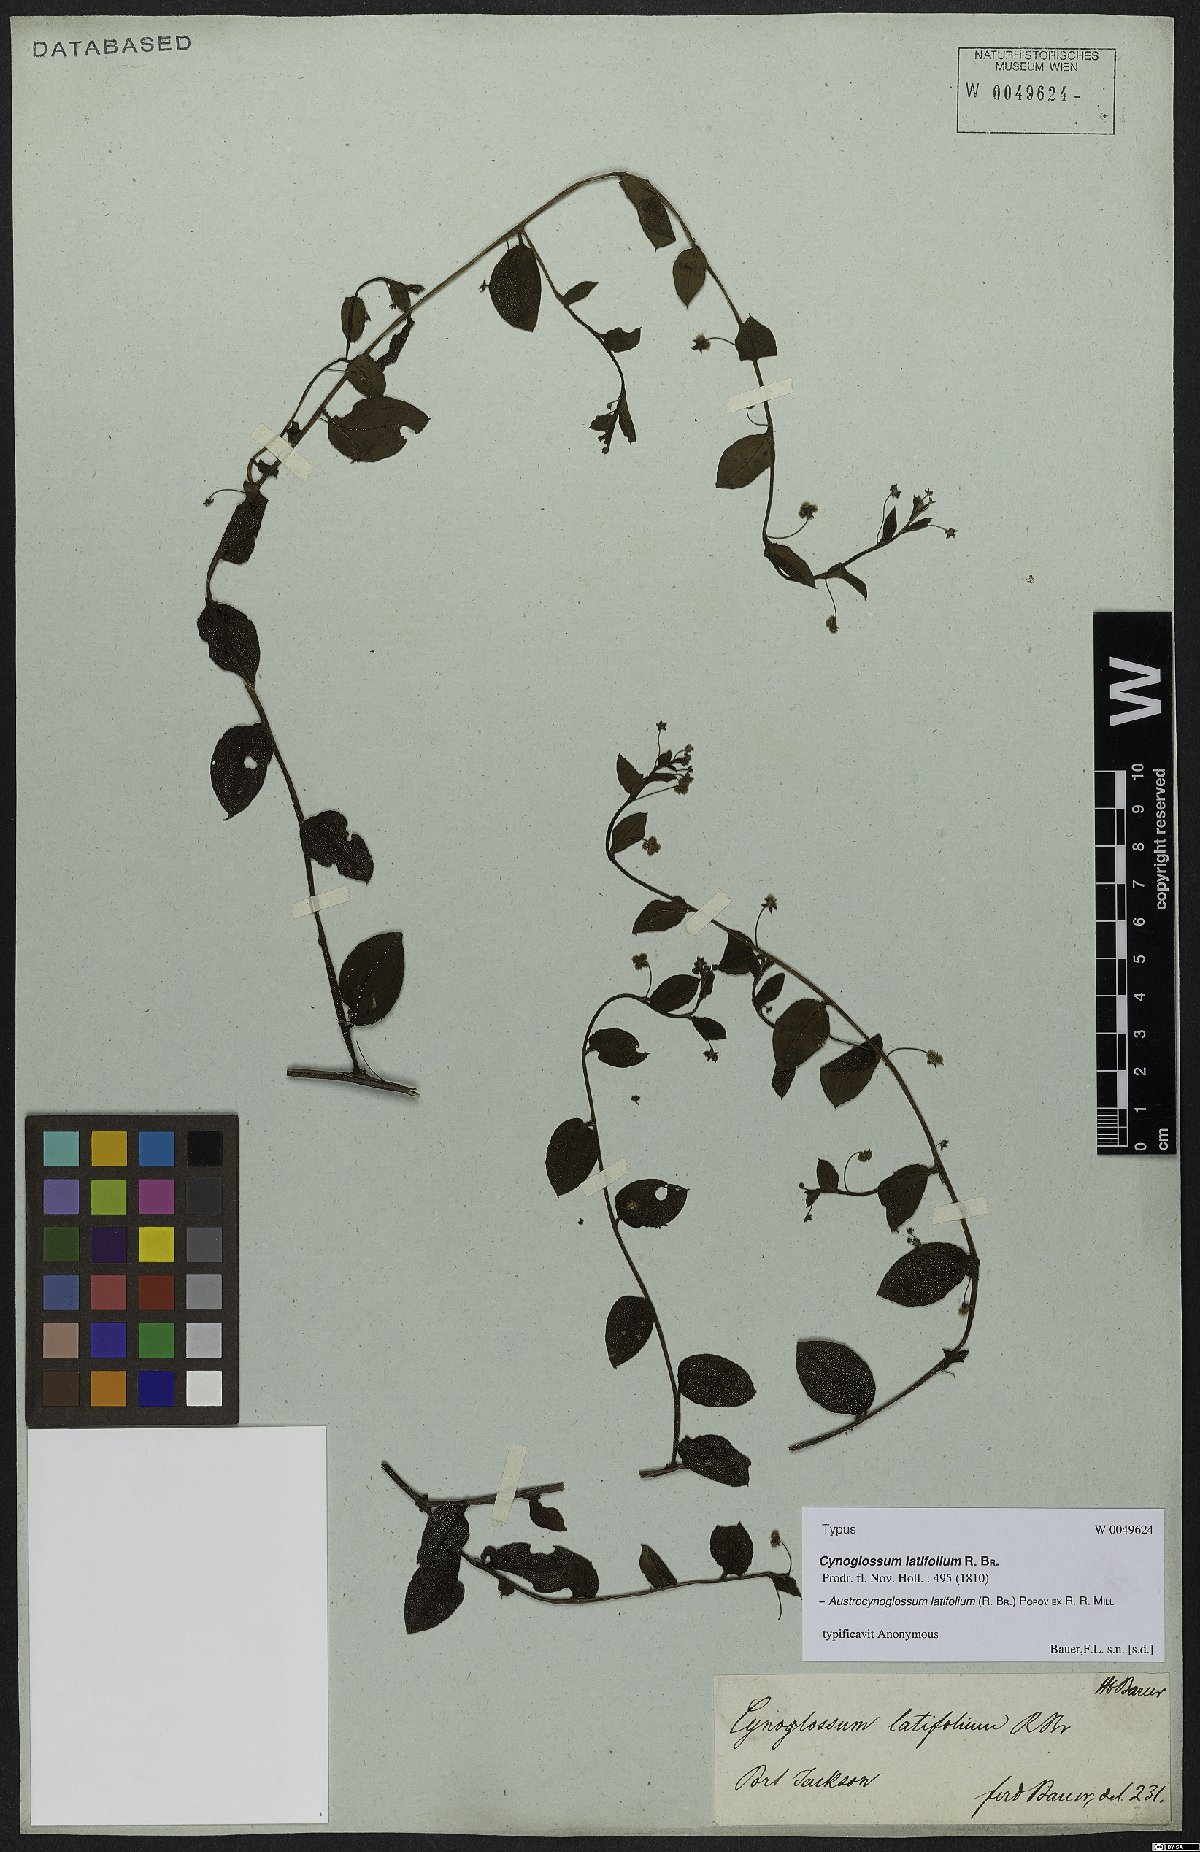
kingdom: Plantae
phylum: Tracheophyta
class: Magnoliopsida
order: Boraginales
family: Boraginaceae
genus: Hackelia
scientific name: Hackelia latifolia
